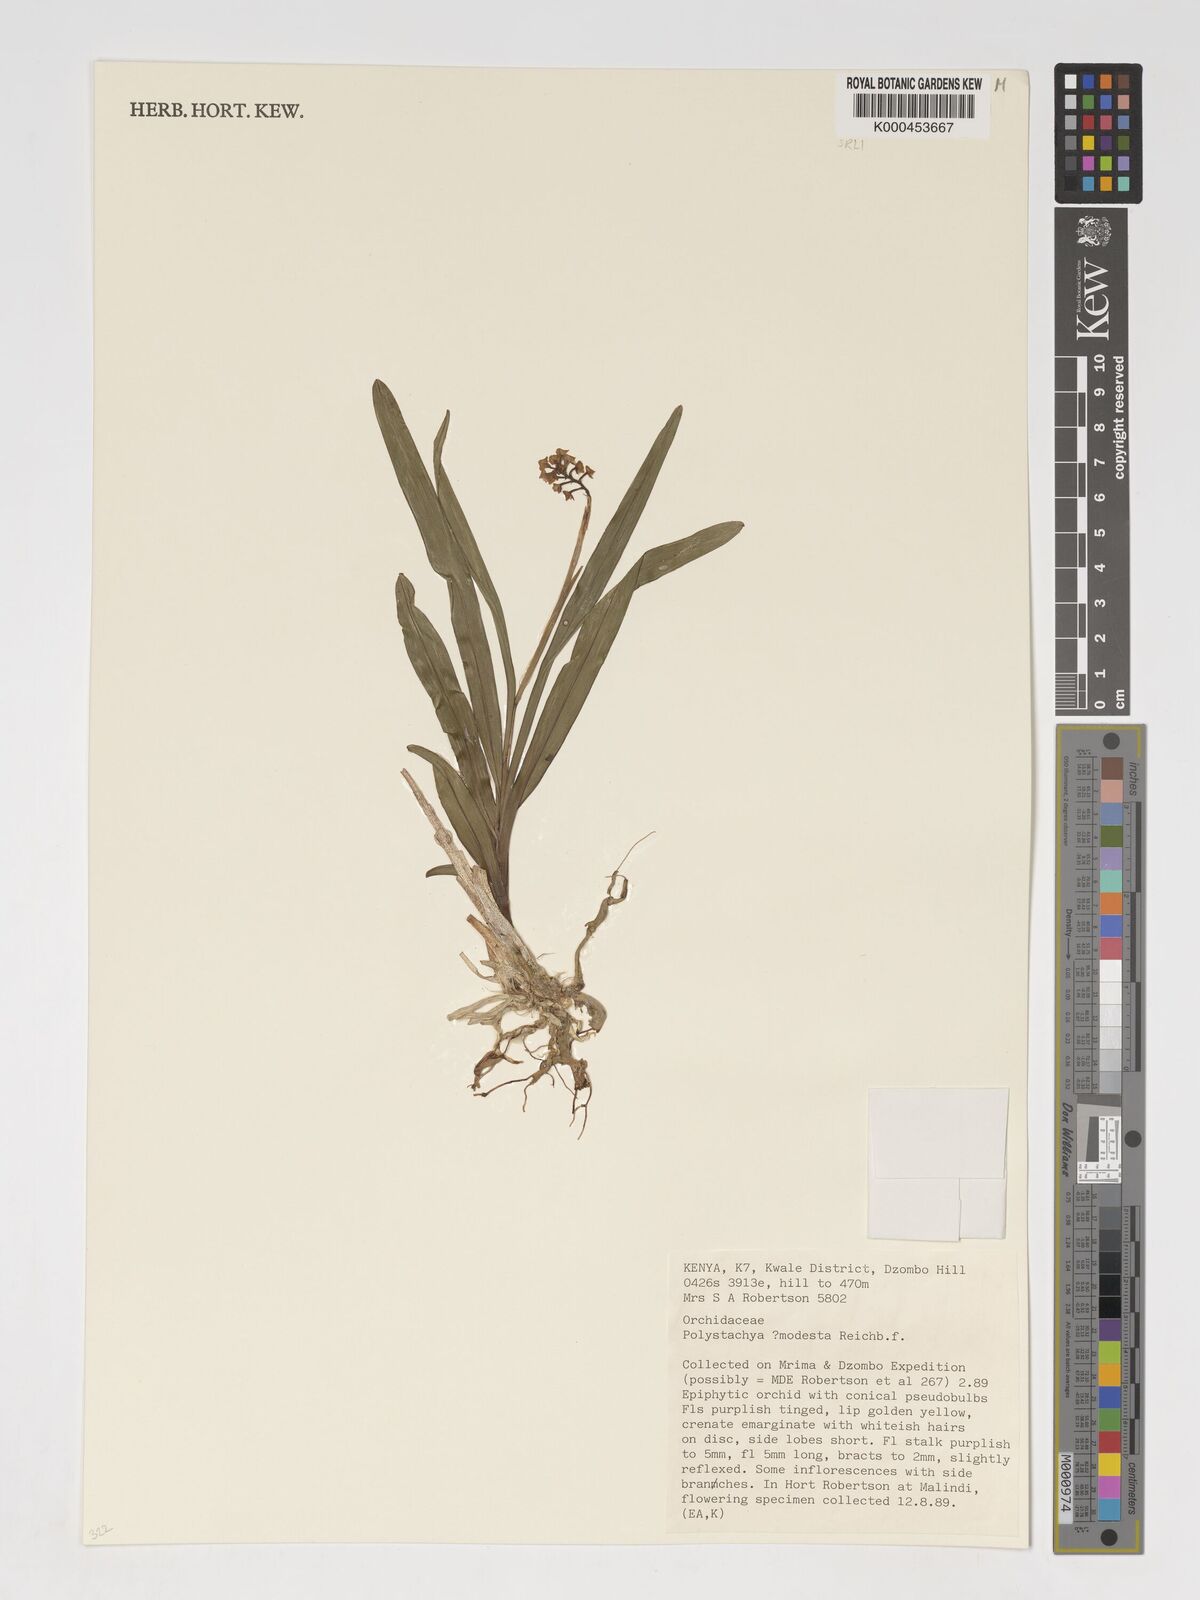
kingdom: Plantae
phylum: Tracheophyta
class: Liliopsida
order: Asparagales
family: Orchidaceae
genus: Polystachya
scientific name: Polystachya modesta
